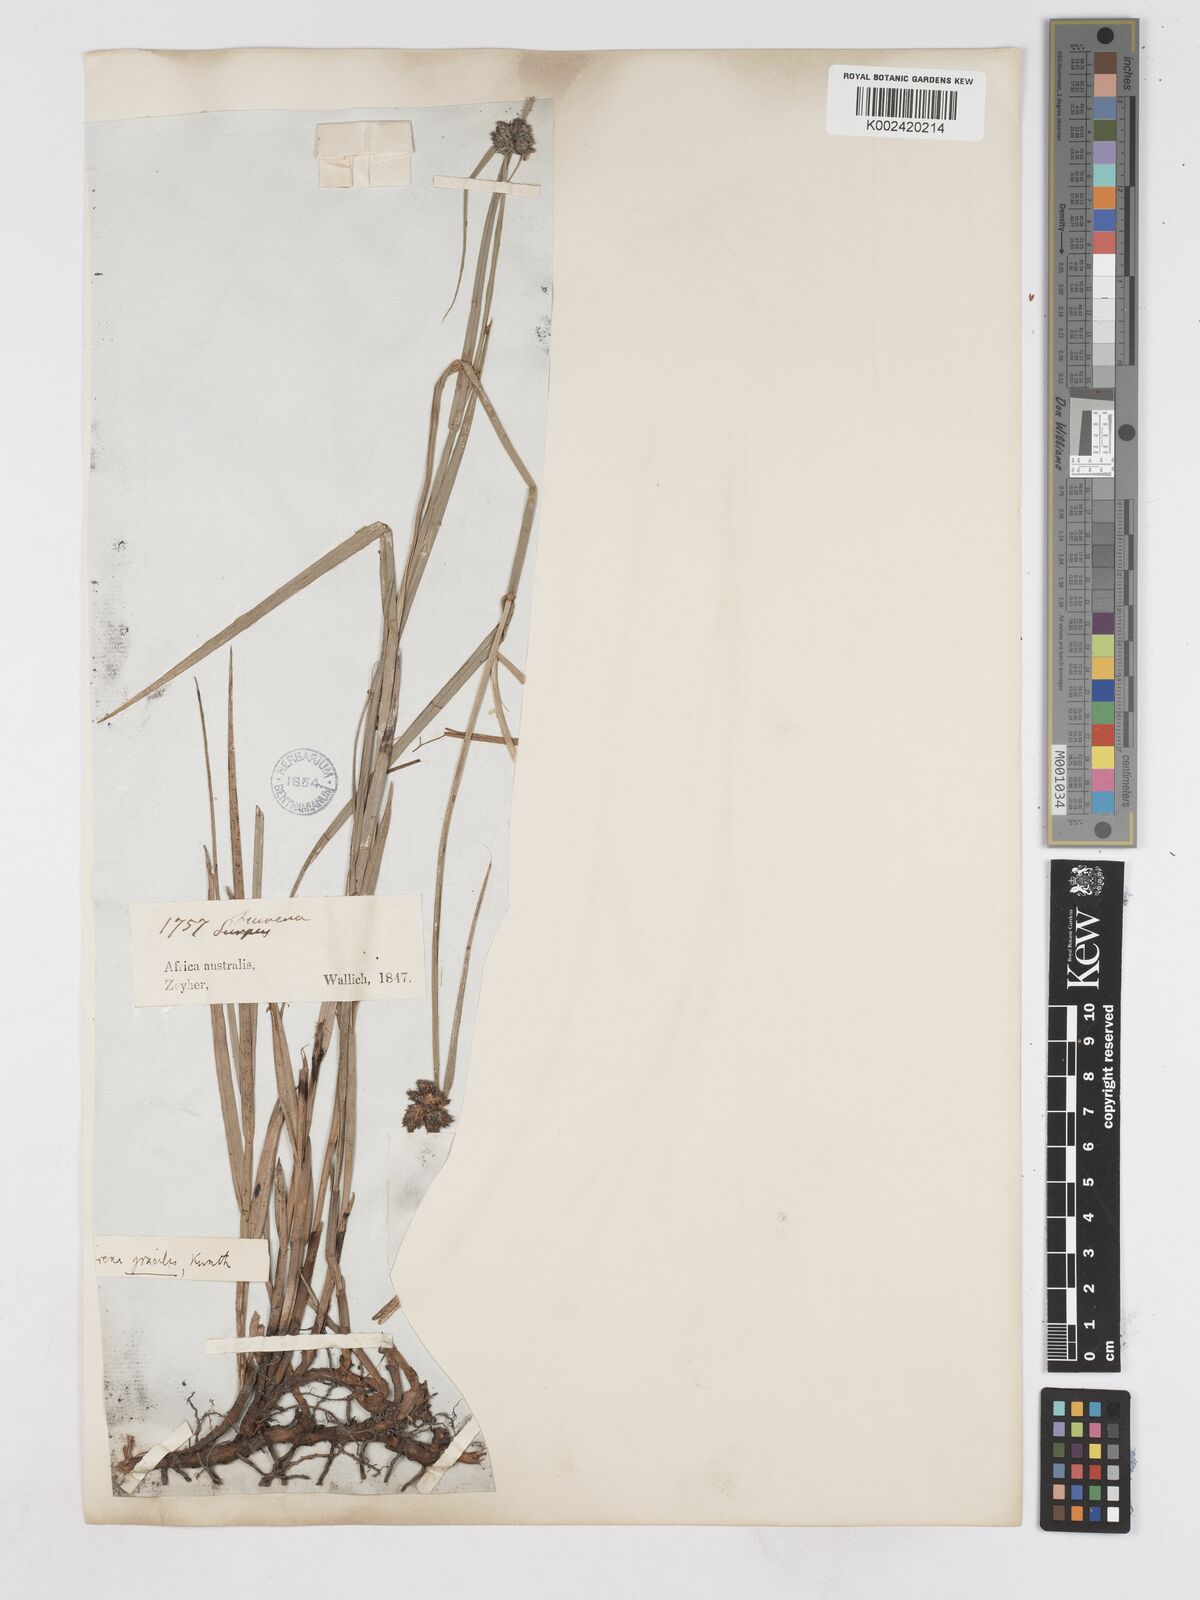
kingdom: Plantae
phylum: Tracheophyta
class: Liliopsida
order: Poales
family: Cyperaceae
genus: Fuirena
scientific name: Fuirena coerulescens
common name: Blue umbrella-sedge
